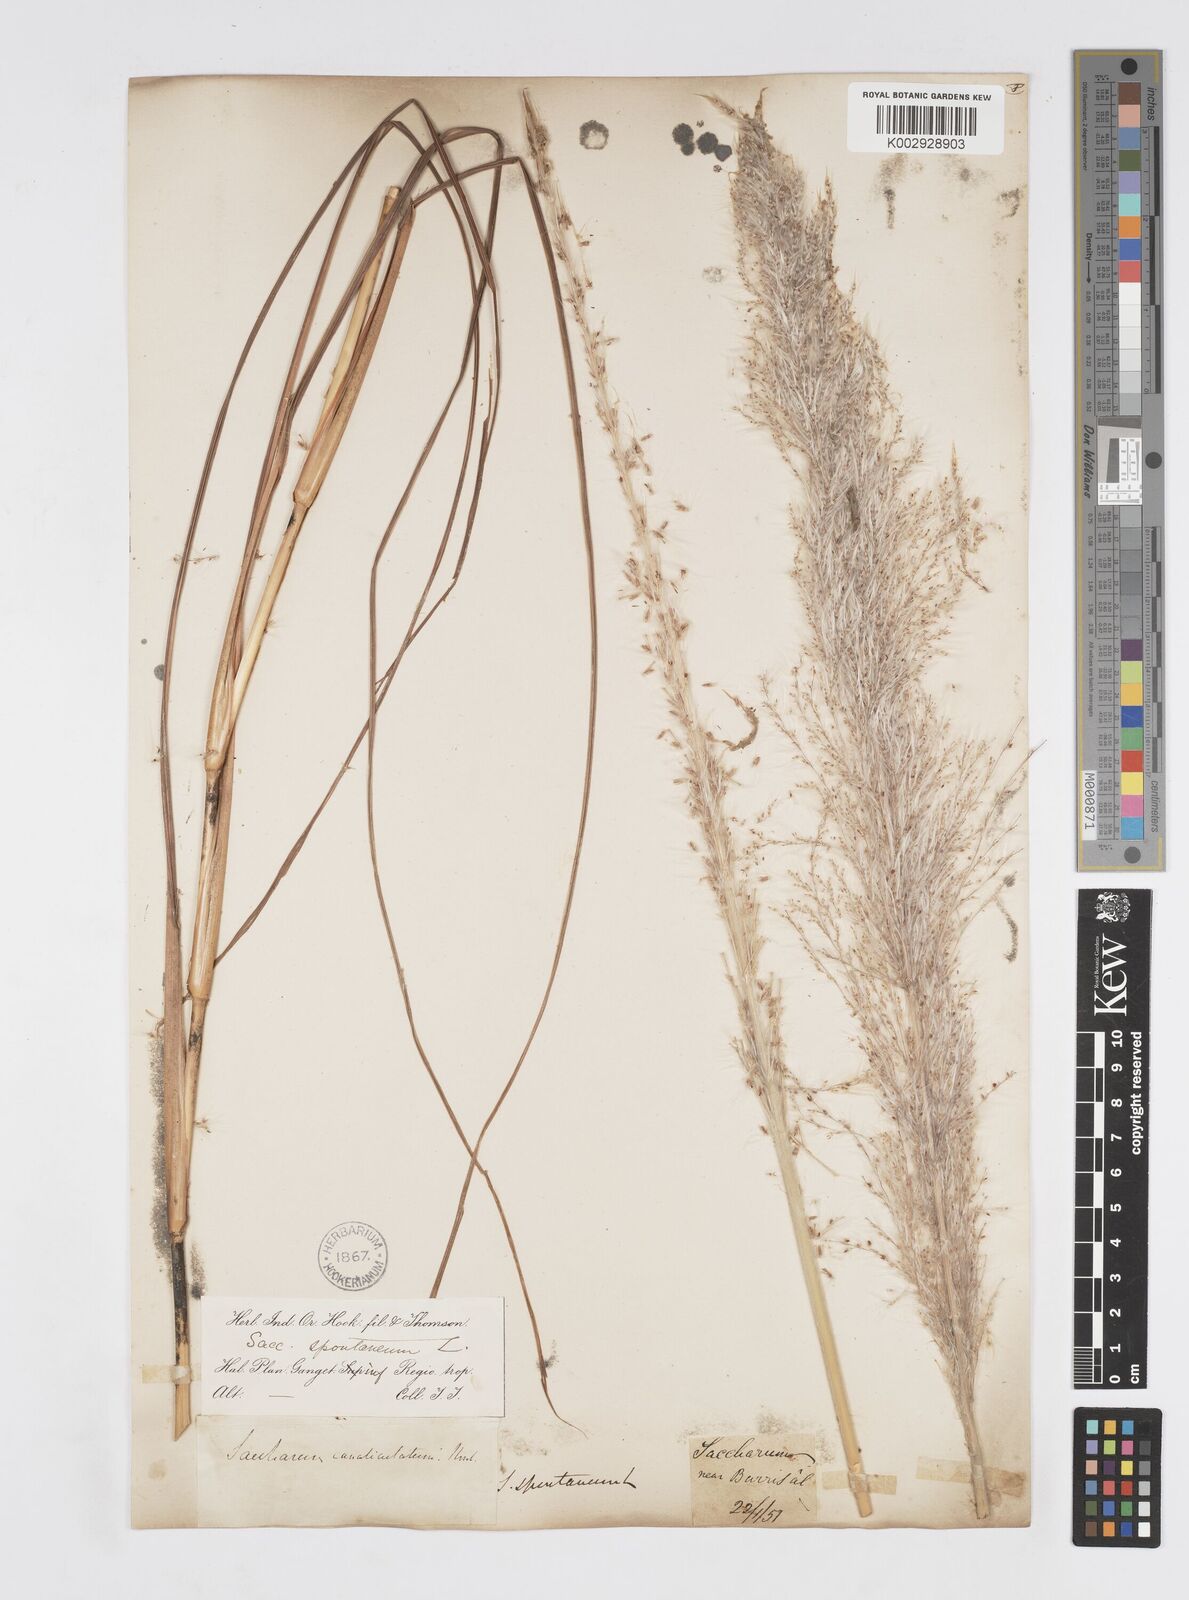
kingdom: Plantae
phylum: Tracheophyta
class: Liliopsida
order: Poales
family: Poaceae
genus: Saccharum
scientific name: Saccharum spontaneum
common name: Wild sugarcane
